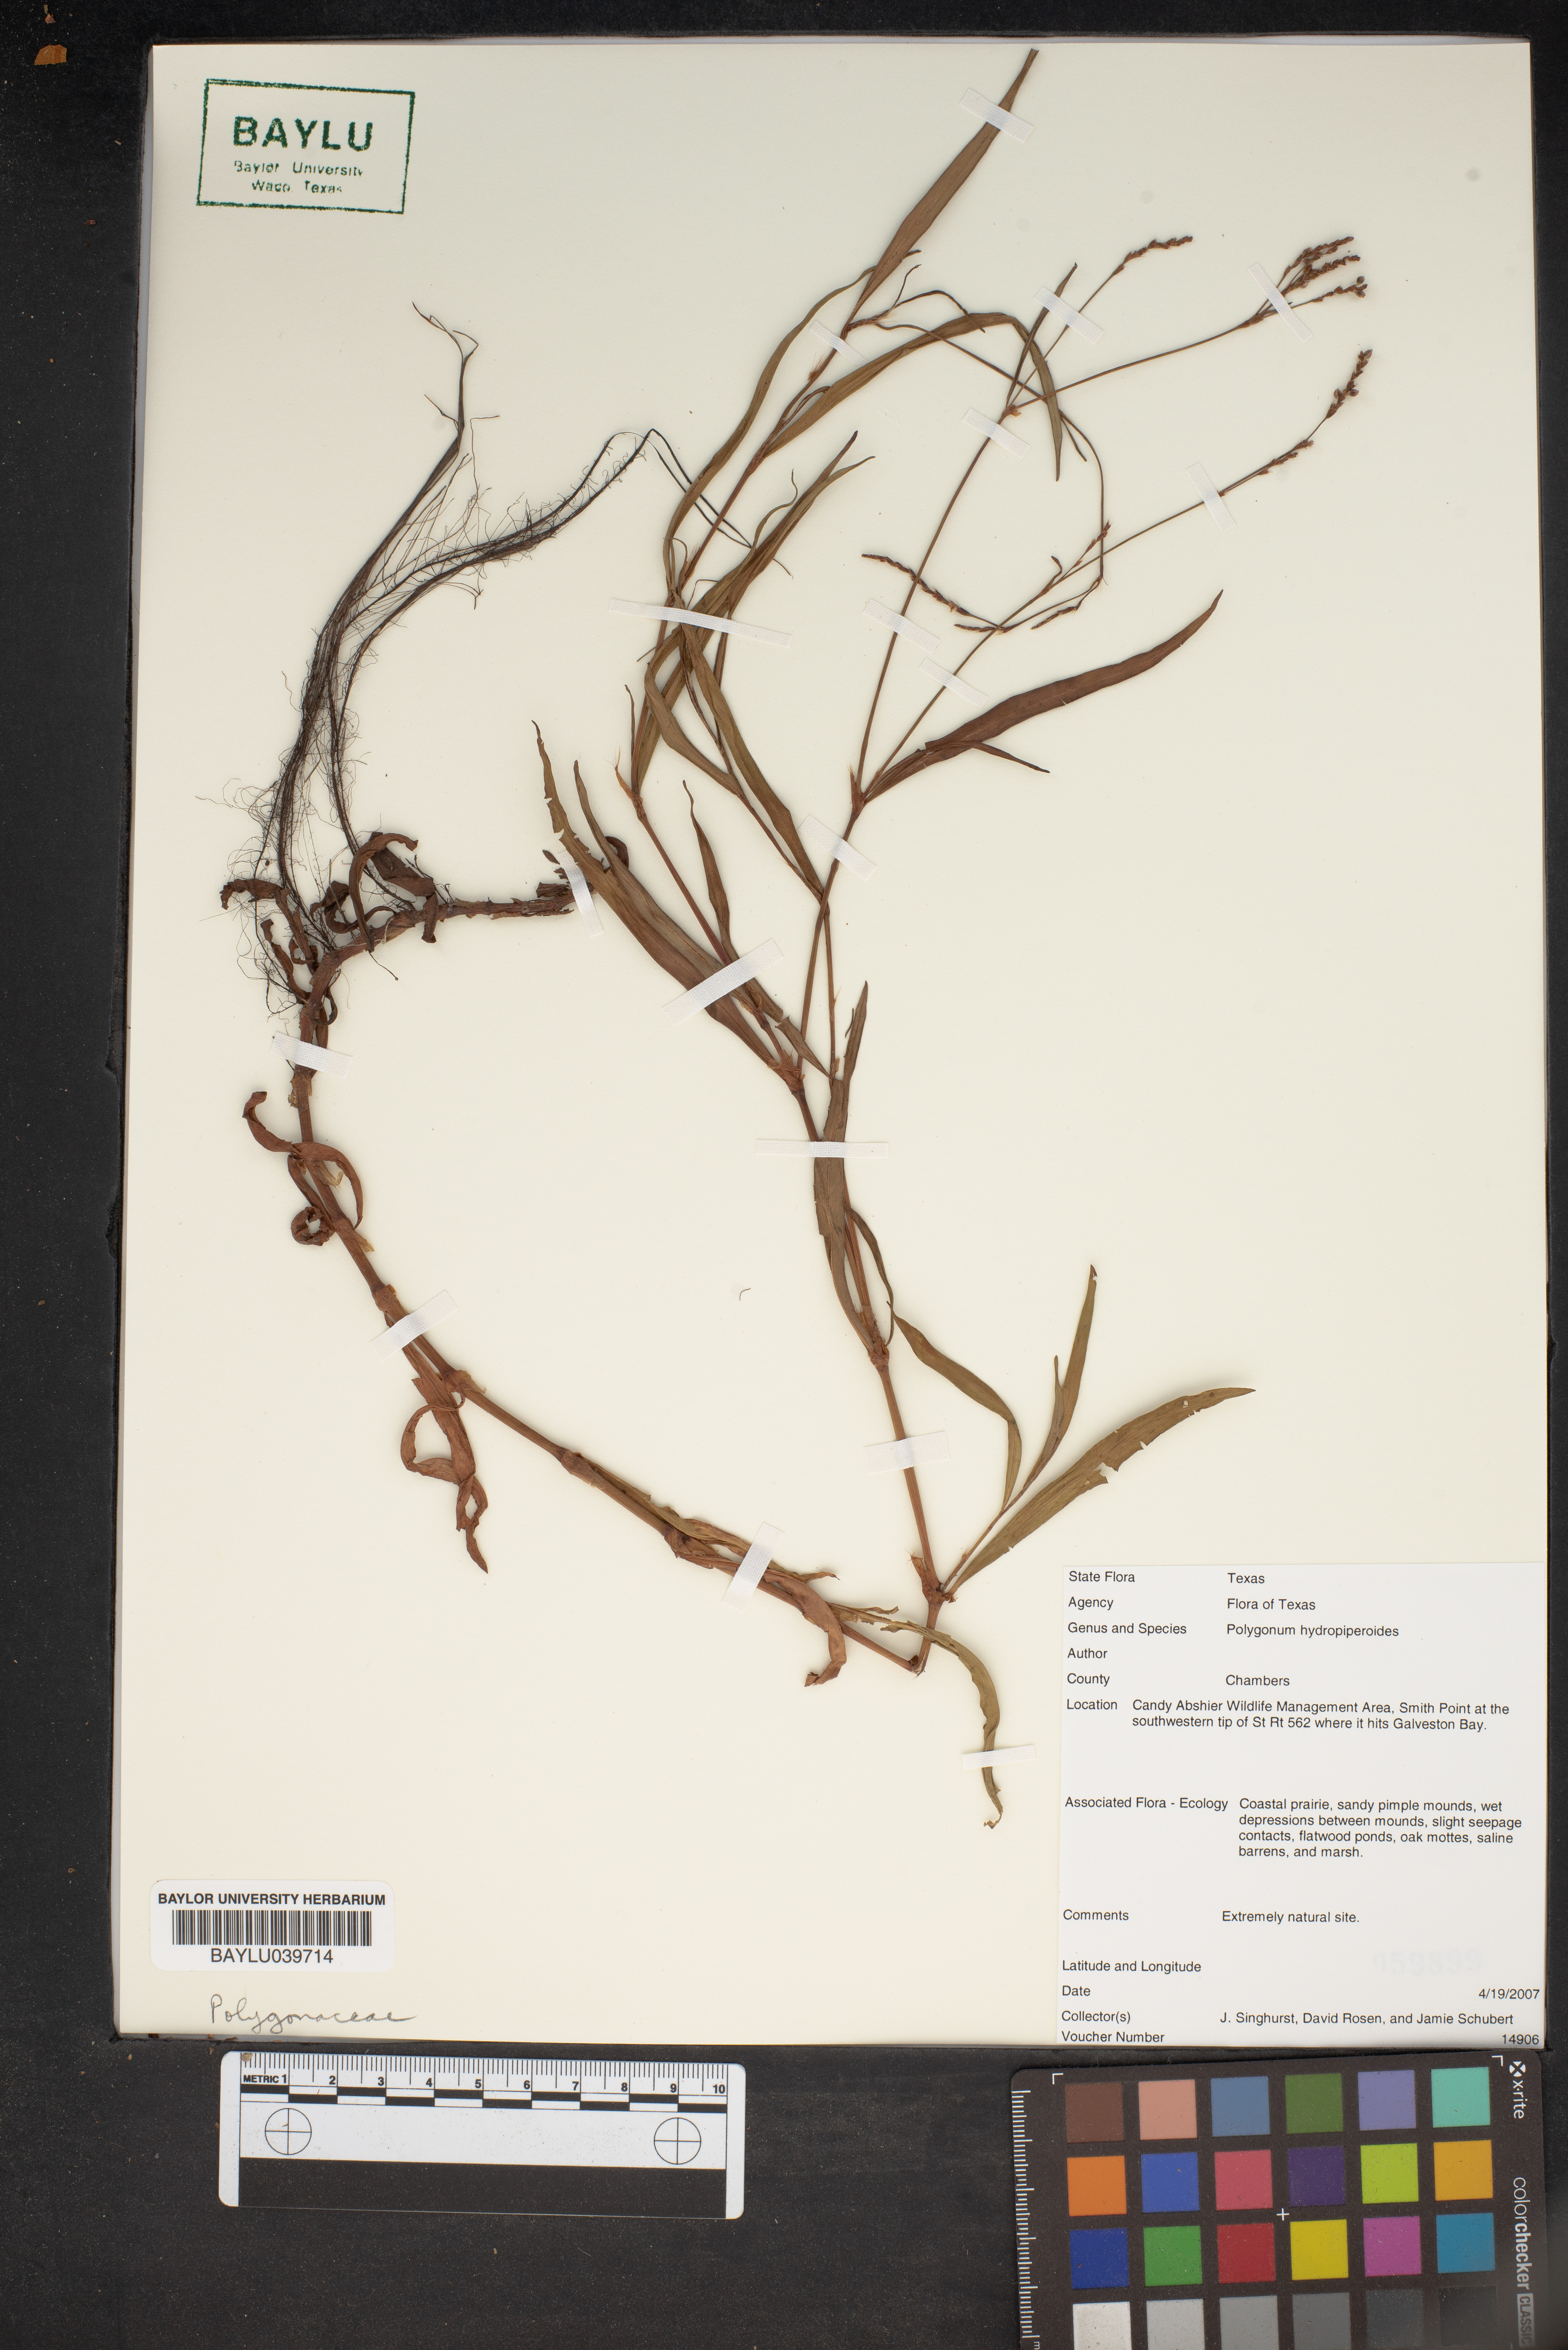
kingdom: Plantae
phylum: Tracheophyta
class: Magnoliopsida
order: Caryophyllales
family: Polygonaceae
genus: Persicaria
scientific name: Persicaria hydropiperoides
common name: Swamp smartweed
